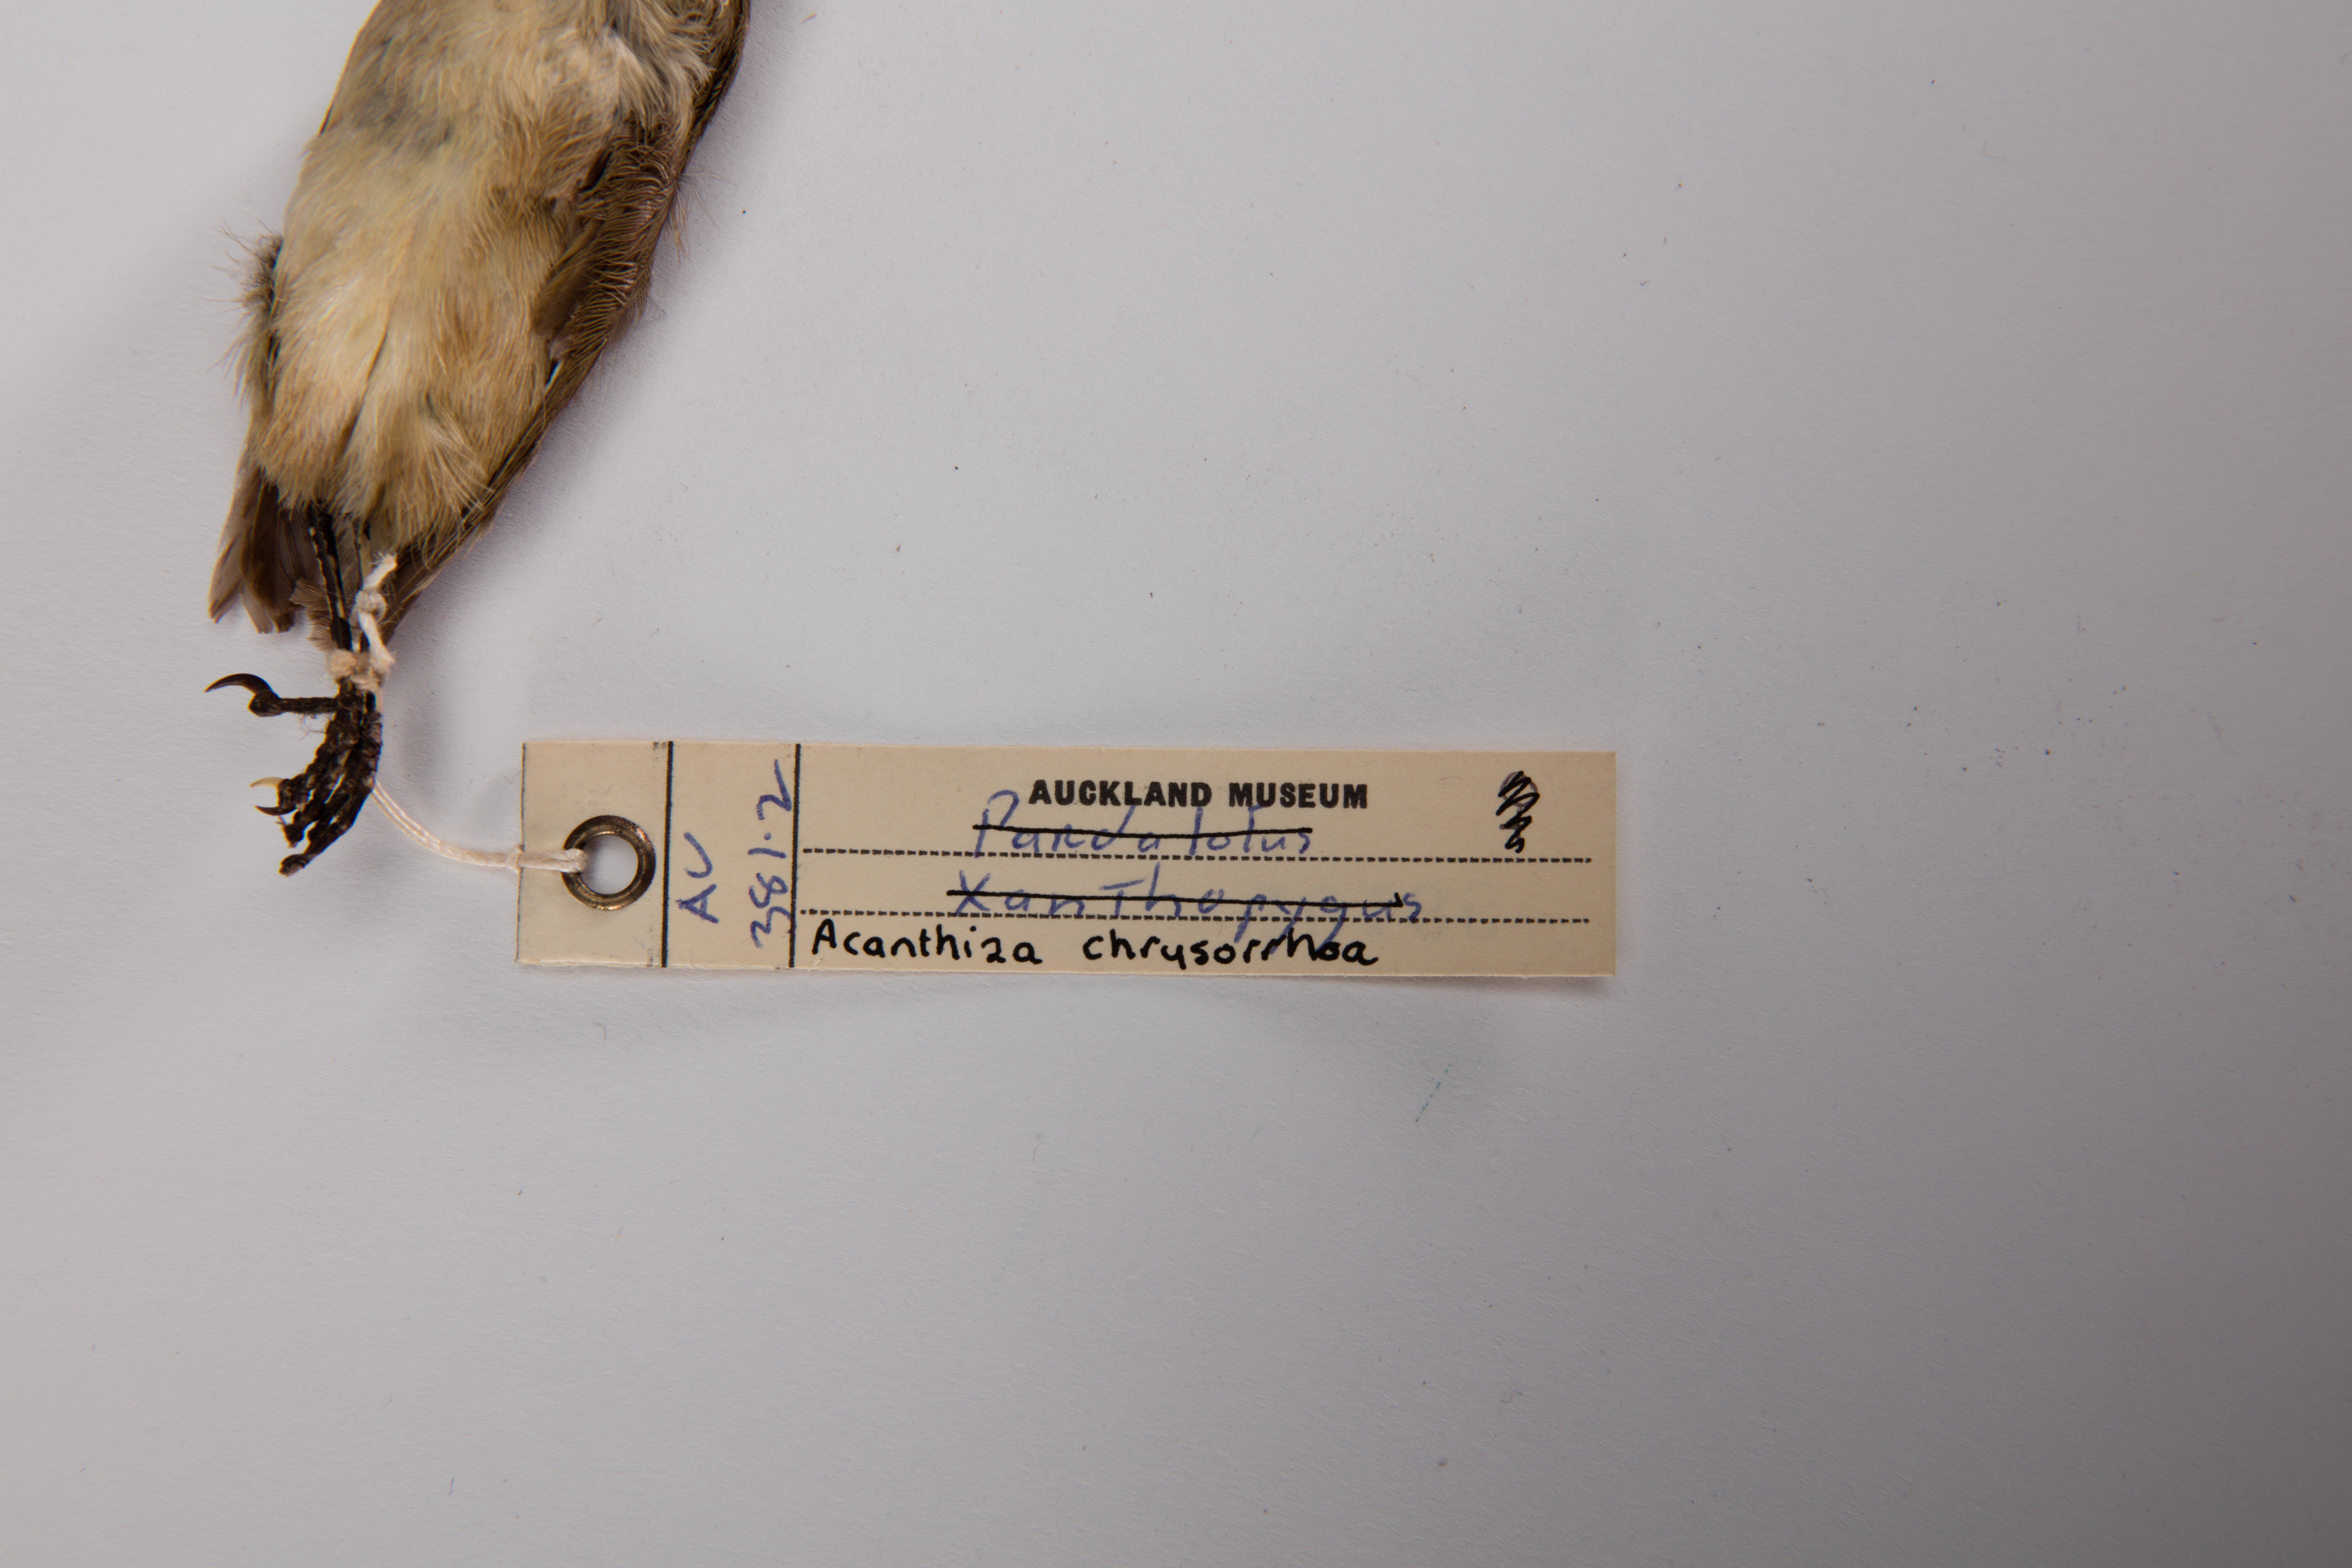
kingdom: Animalia
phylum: Chordata
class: Aves
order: Passeriformes
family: Acanthizidae
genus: Acanthiza
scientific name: Acanthiza chrysorrhoa
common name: Yellow-rumped thornbill
